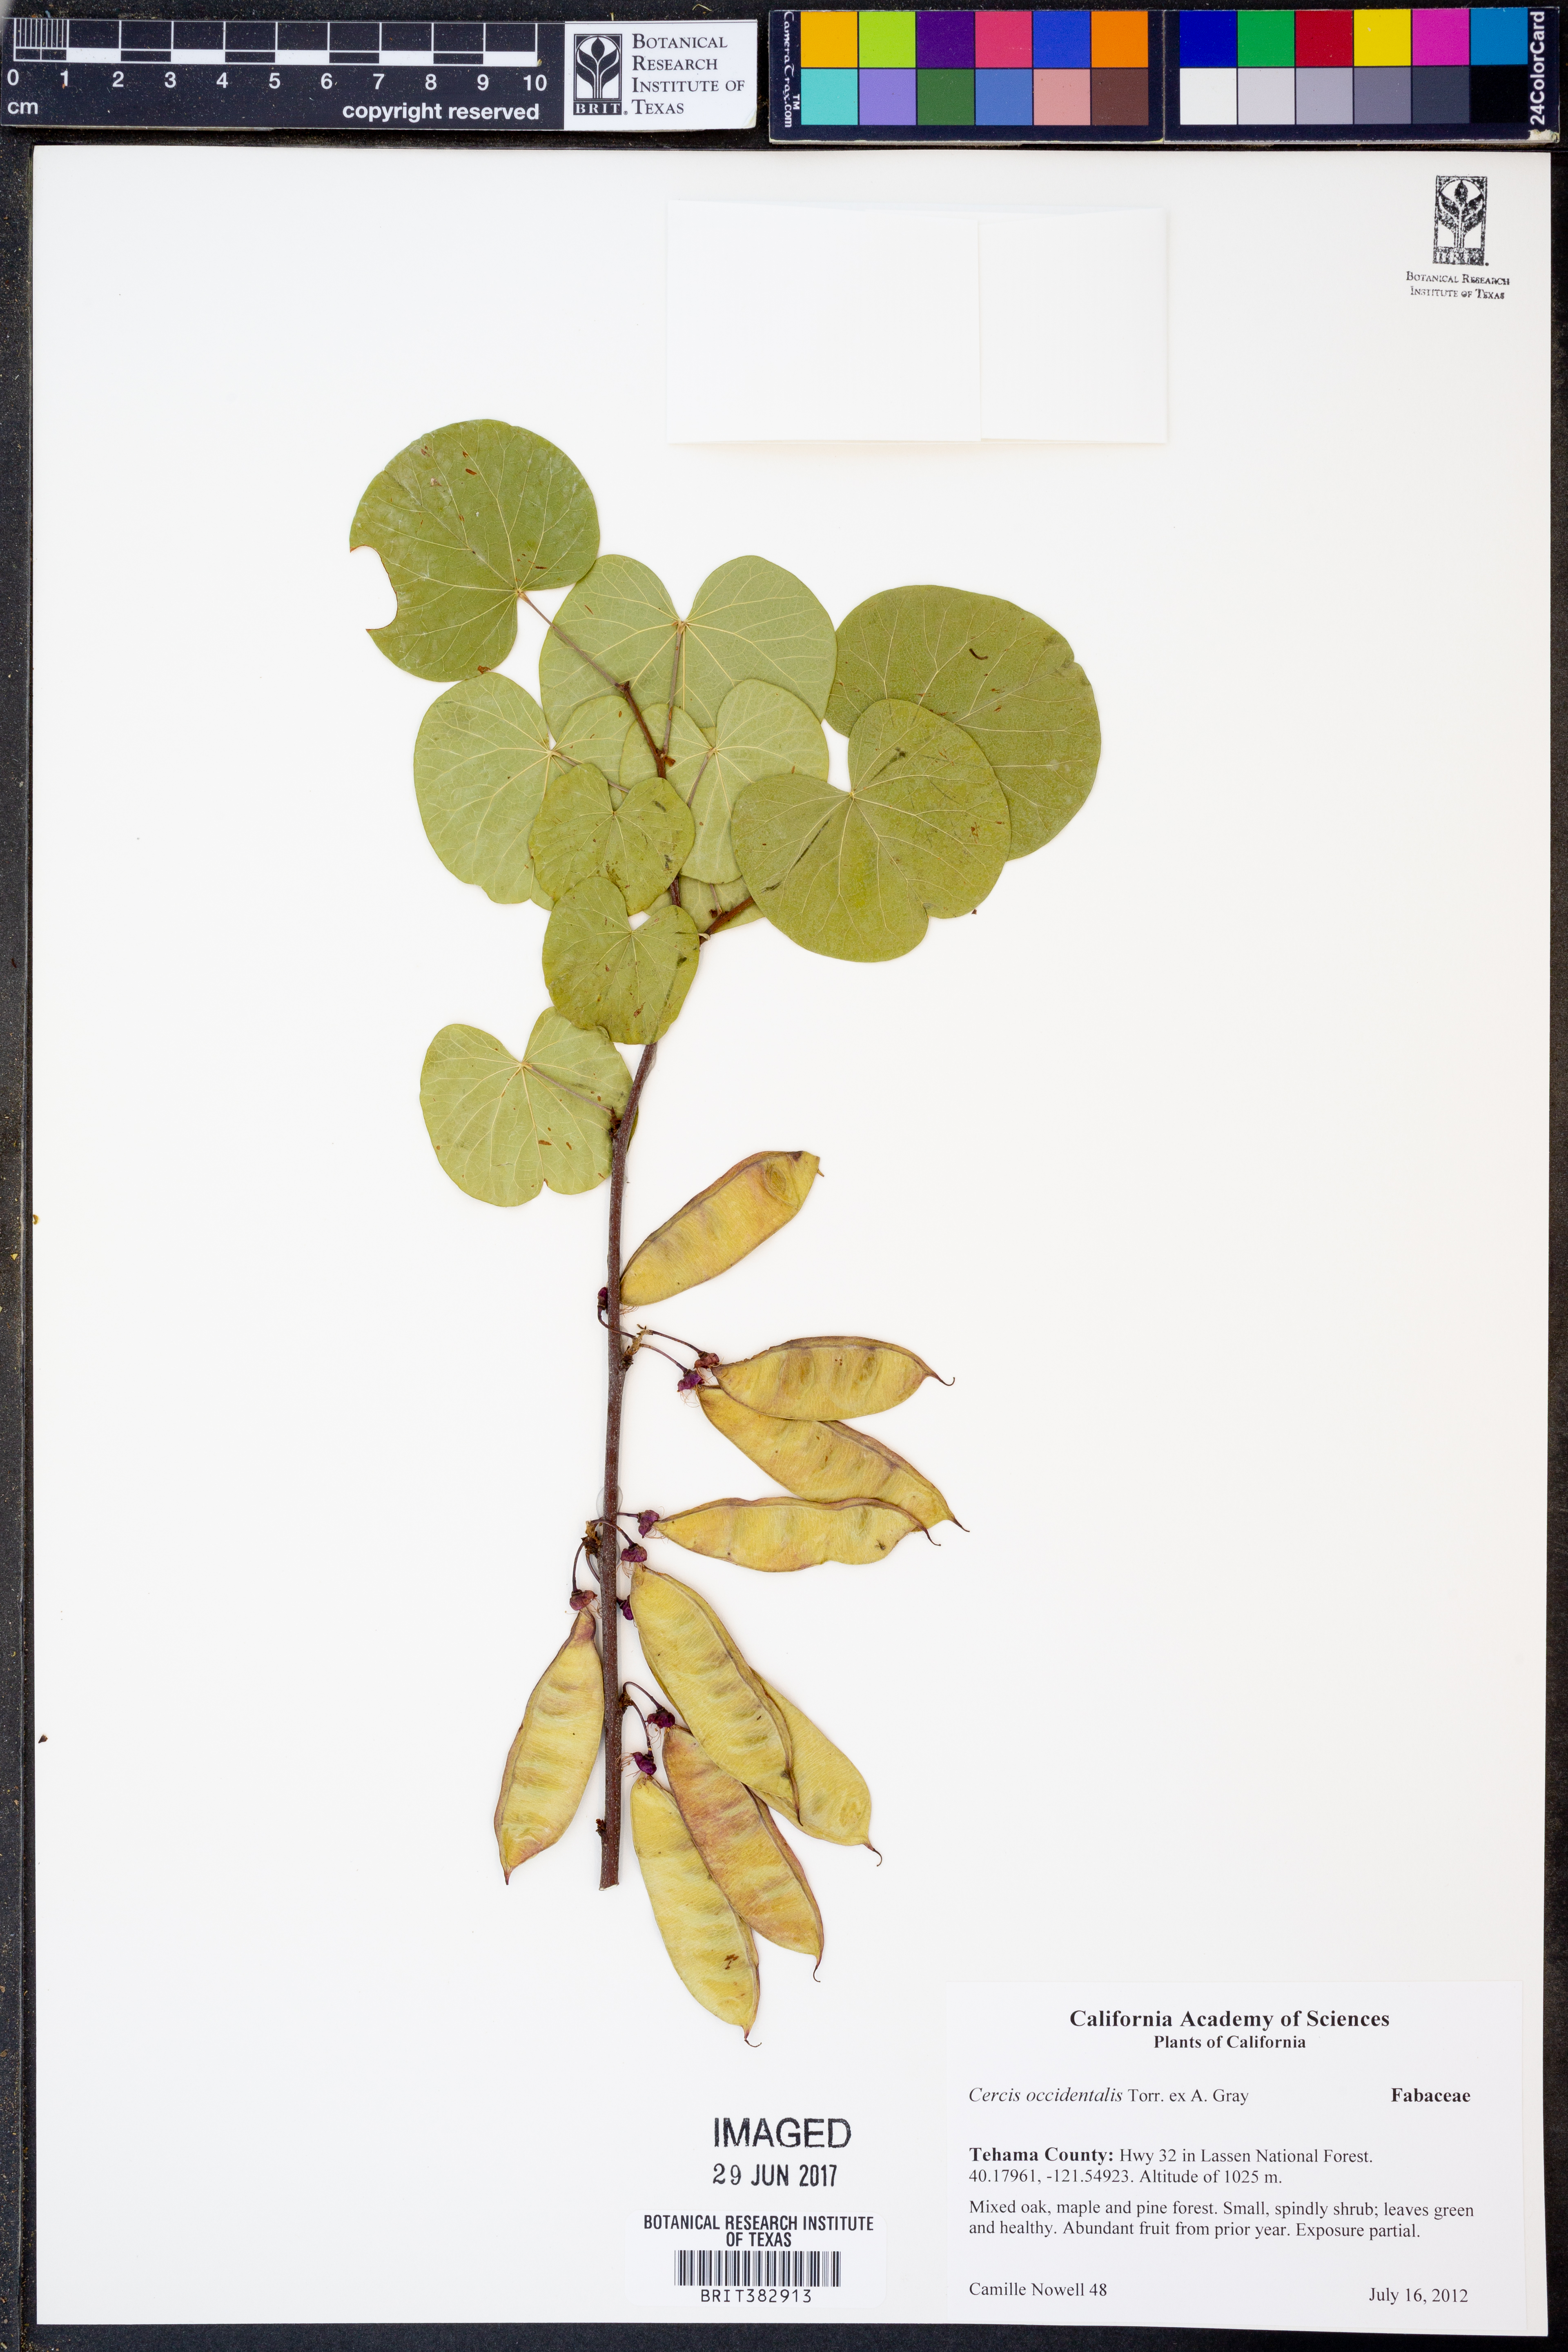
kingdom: Plantae
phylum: Tracheophyta
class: Magnoliopsida
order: Fabales
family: Fabaceae
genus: Cercis
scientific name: Cercis occidentalis
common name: California redbud
